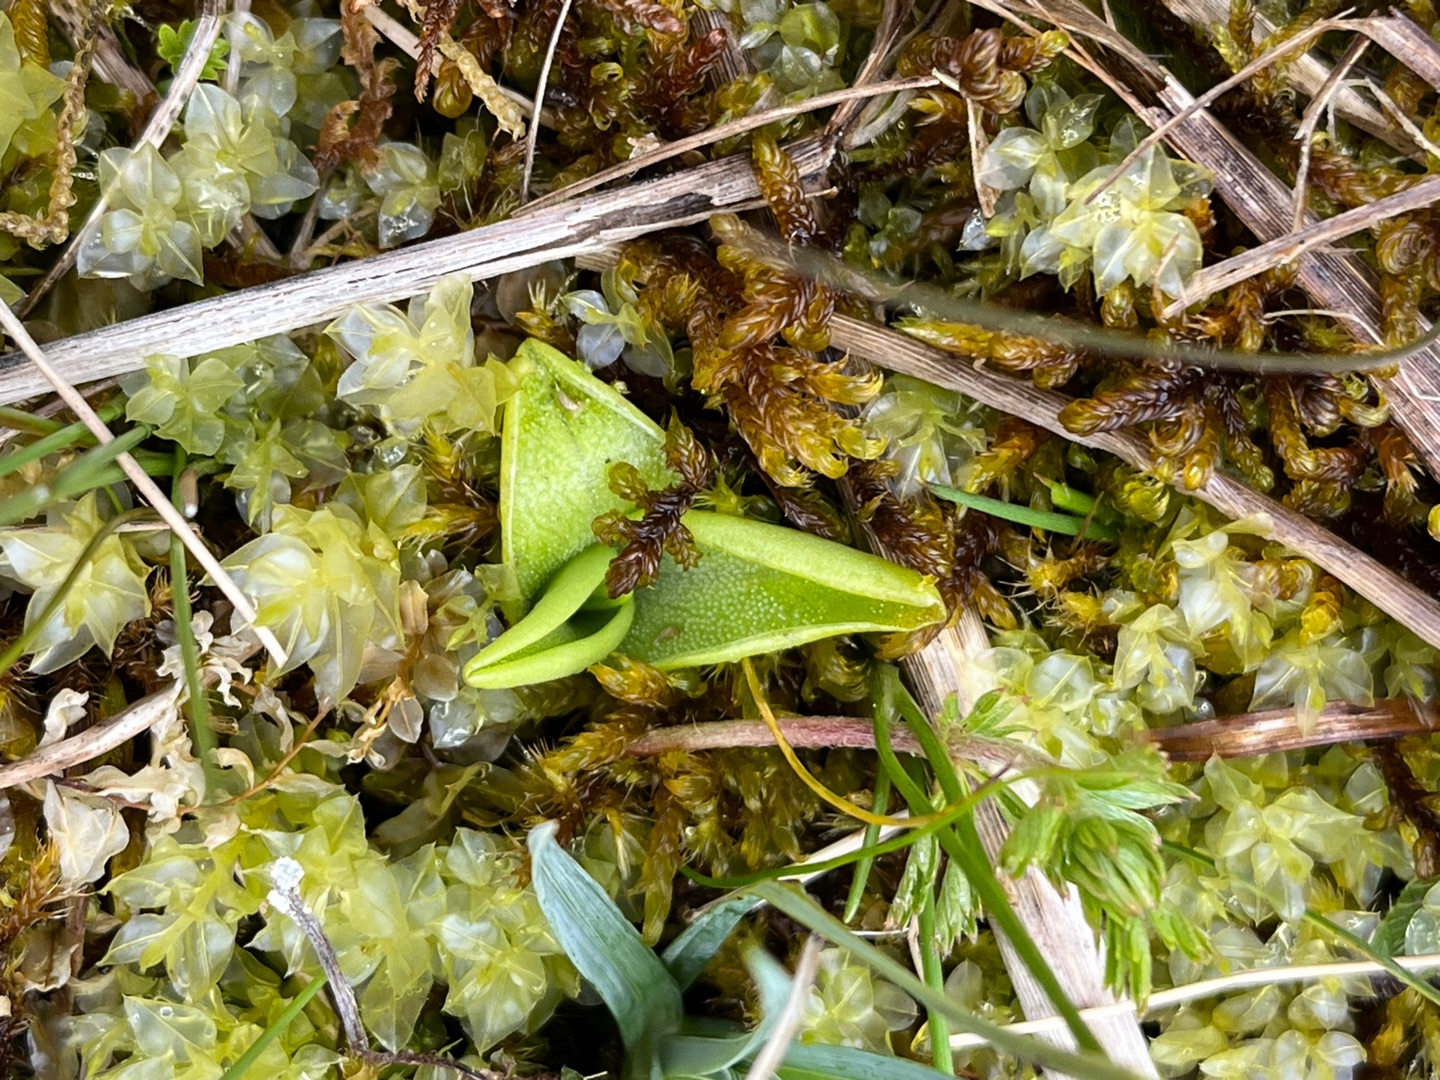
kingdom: Plantae
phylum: Tracheophyta
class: Magnoliopsida
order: Lamiales
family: Lentibulariaceae
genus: Pinguicula
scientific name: Pinguicula vulgaris
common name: Vibefedt
